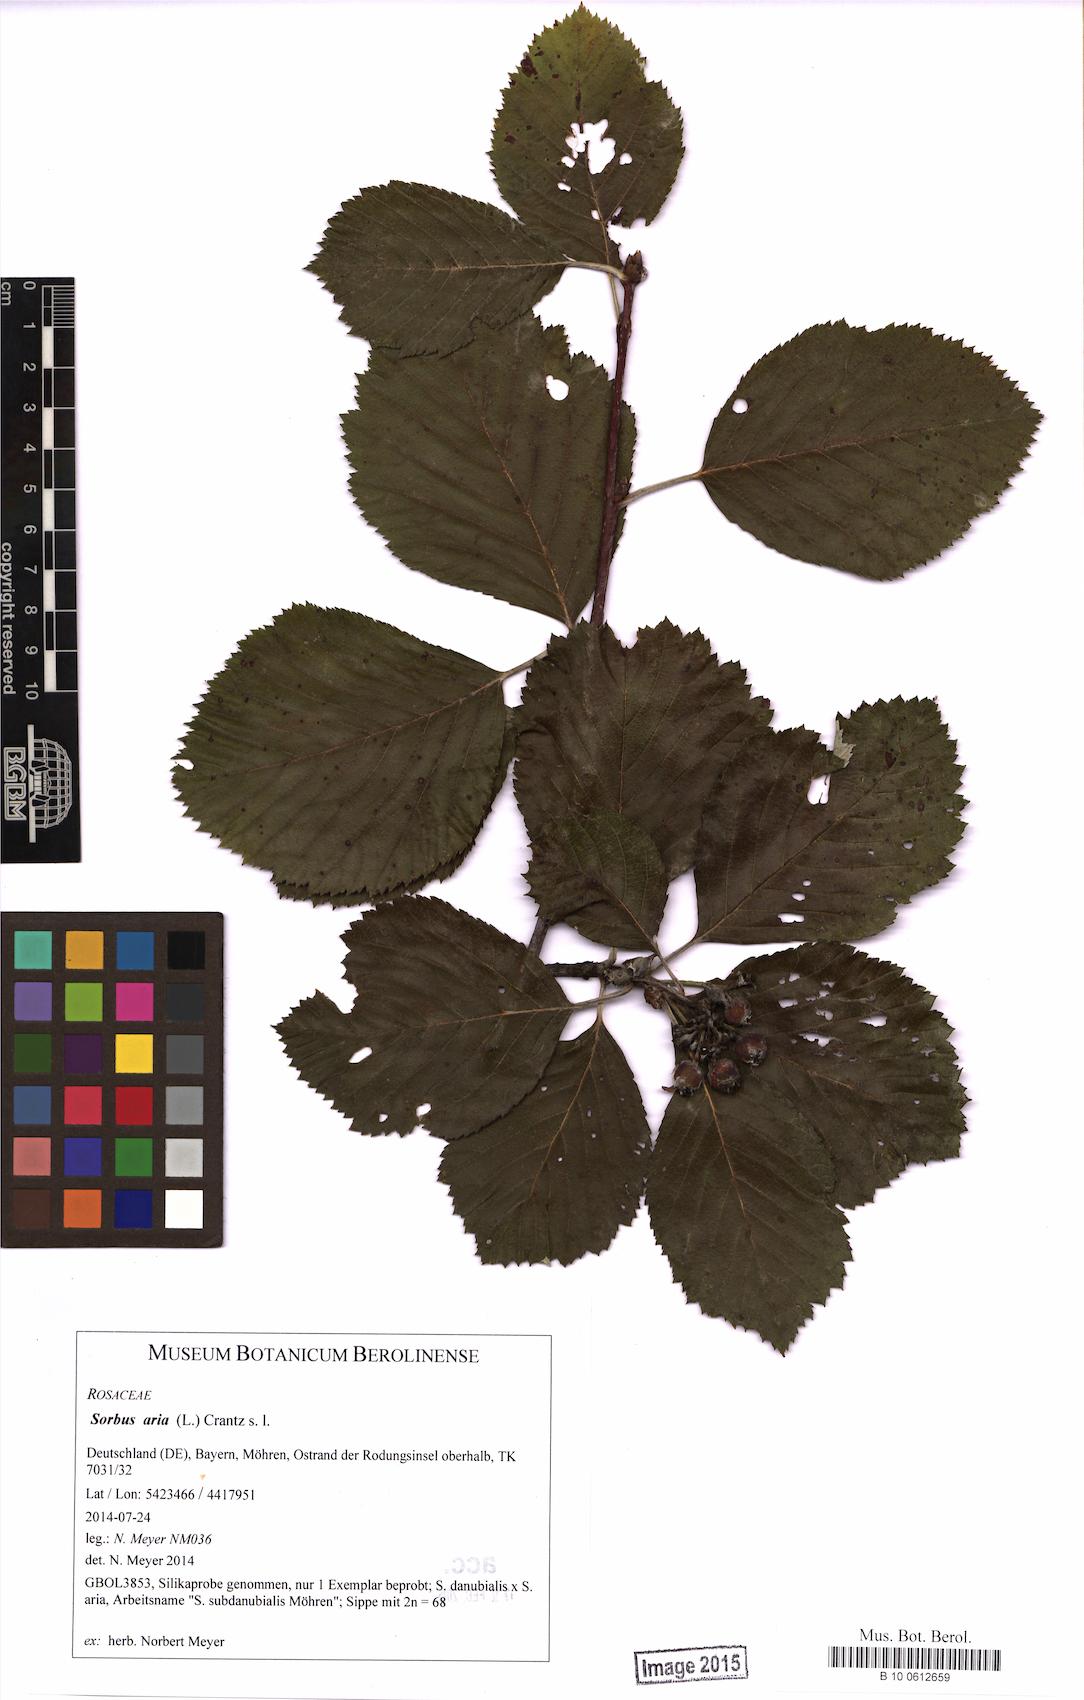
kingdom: Plantae
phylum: Tracheophyta
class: Magnoliopsida
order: Rosales
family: Rosaceae
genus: Aria
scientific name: Aria edulis
